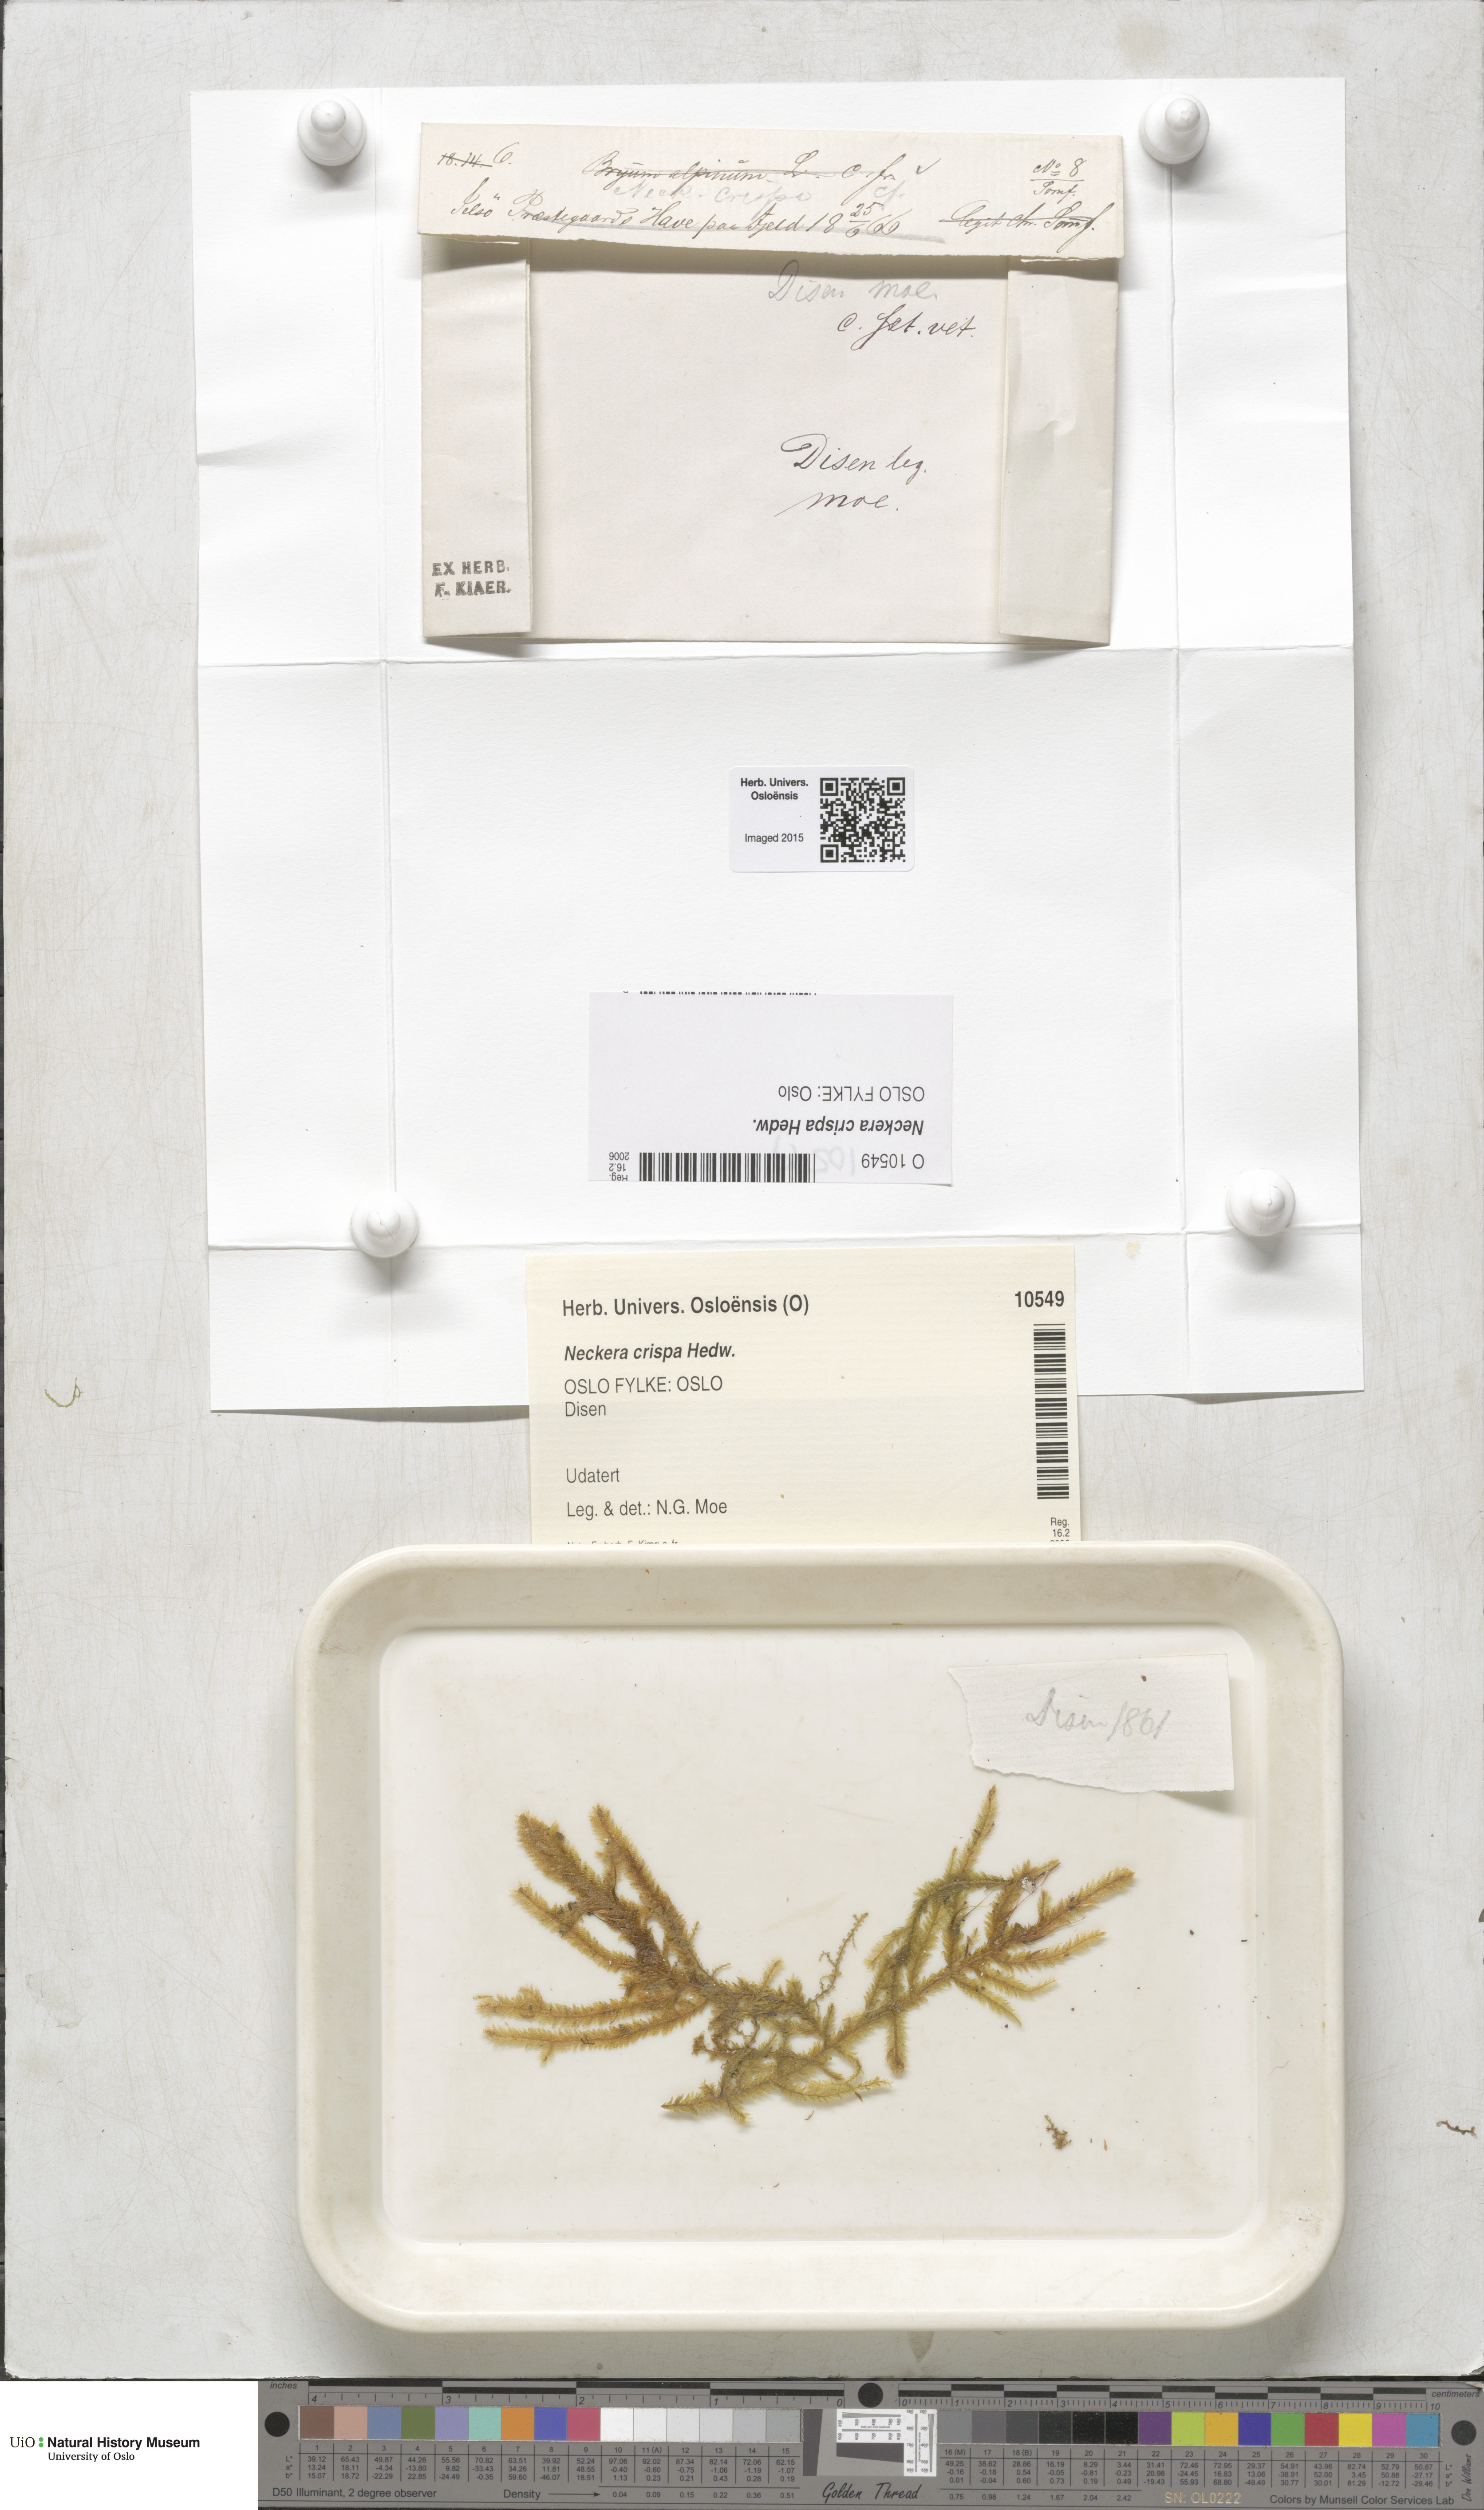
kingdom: Plantae
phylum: Bryophyta
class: Bryopsida
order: Hypnales
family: Neckeraceae
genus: Exsertotheca
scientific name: Exsertotheca crispa
